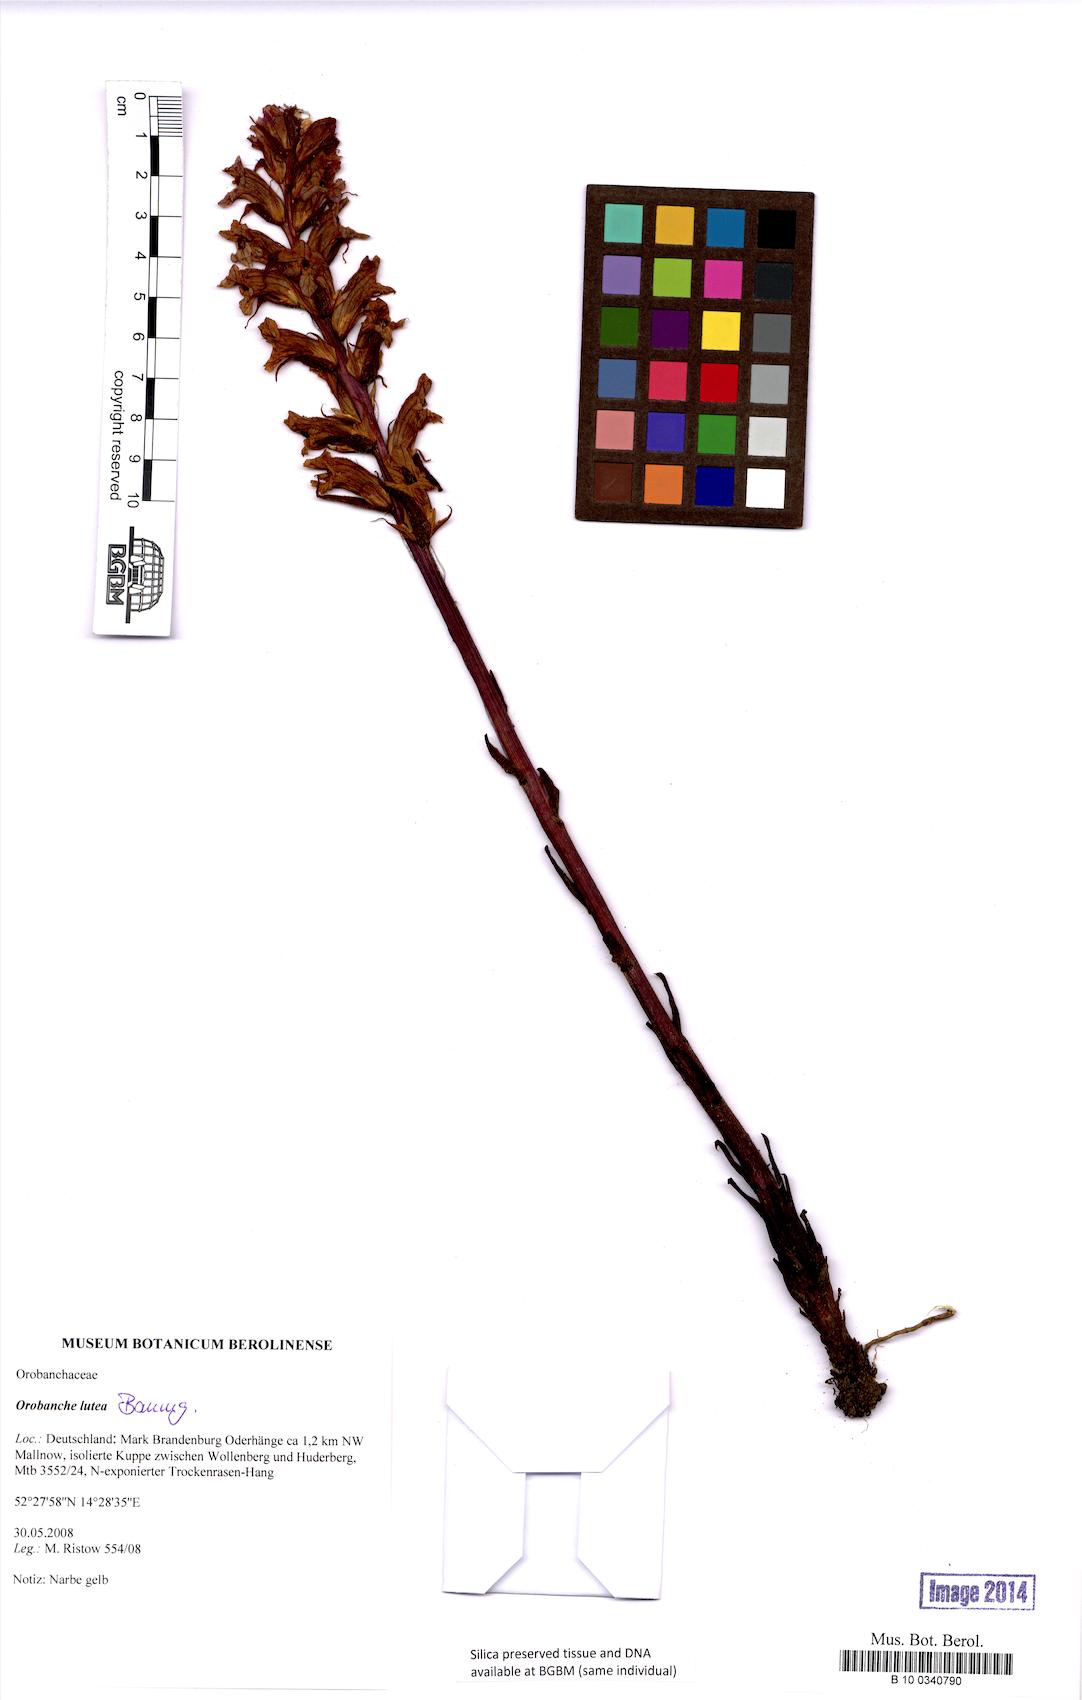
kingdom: Plantae
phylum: Tracheophyta
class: Magnoliopsida
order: Lamiales
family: Orobanchaceae
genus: Orobanche
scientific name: Orobanche lutea
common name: Yellow broomrape
